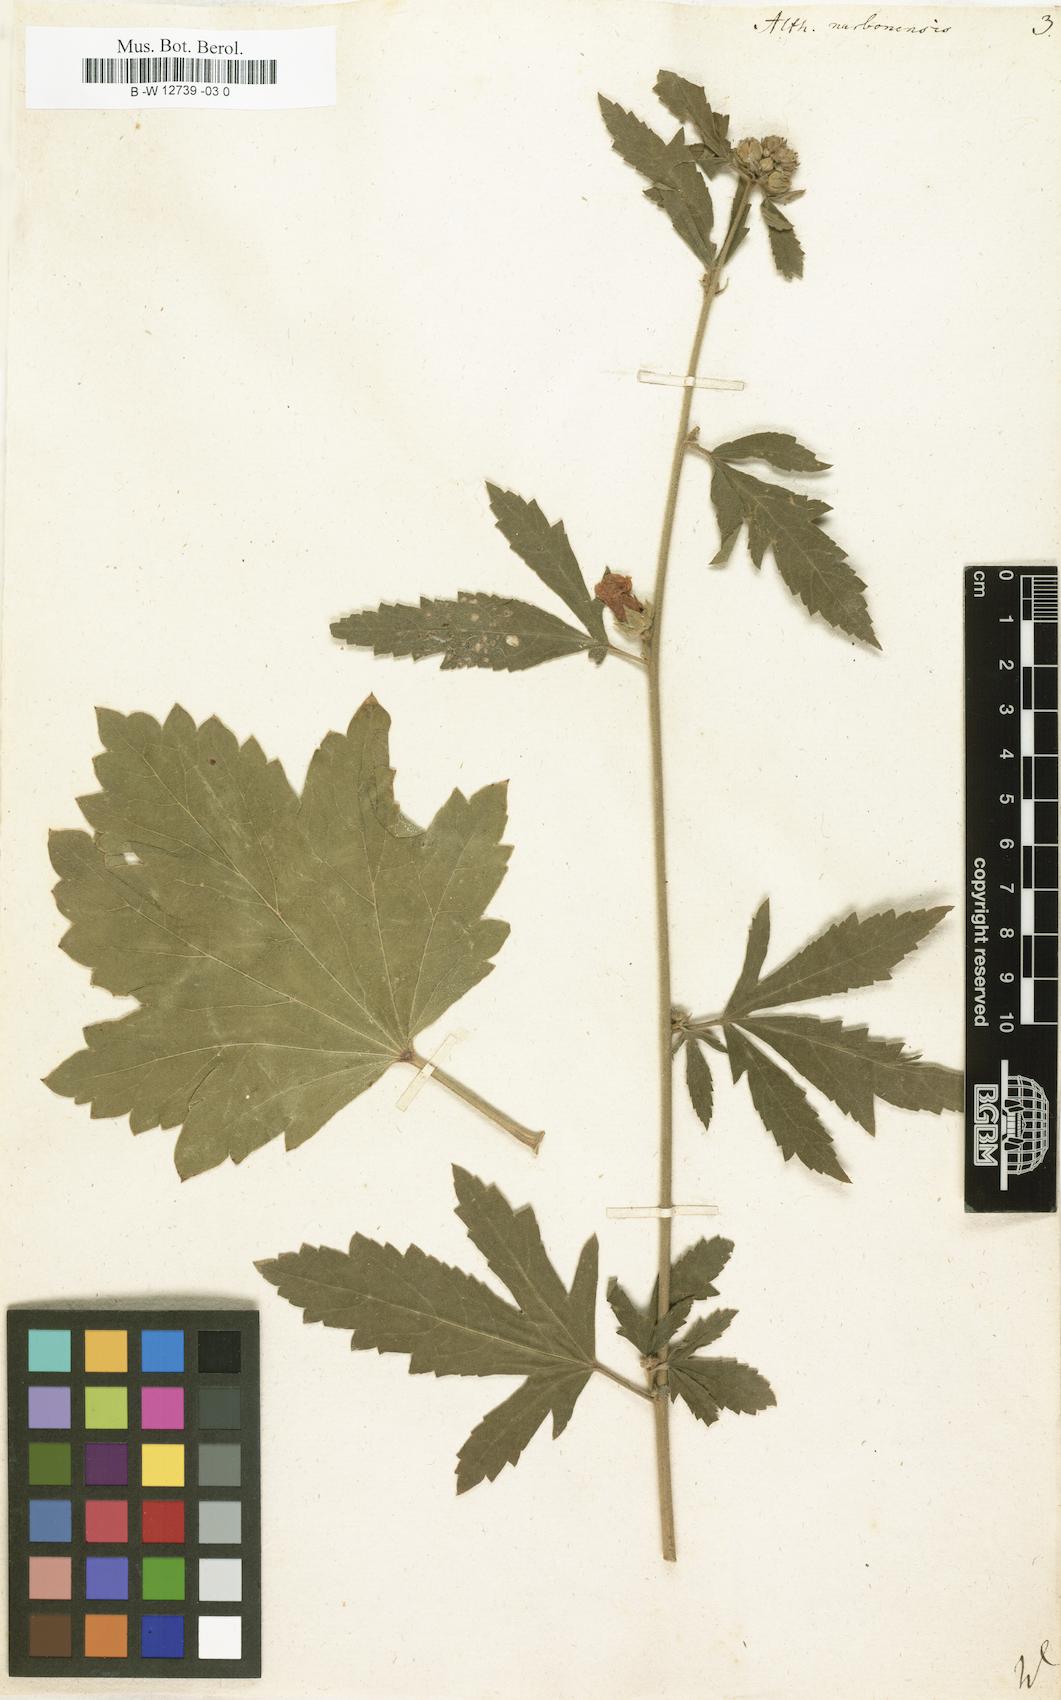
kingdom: Plantae
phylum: Tracheophyta
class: Magnoliopsida
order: Malvales
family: Malvaceae
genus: Althaea
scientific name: Althaea cannabina
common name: Palm-leaf marshmallow
